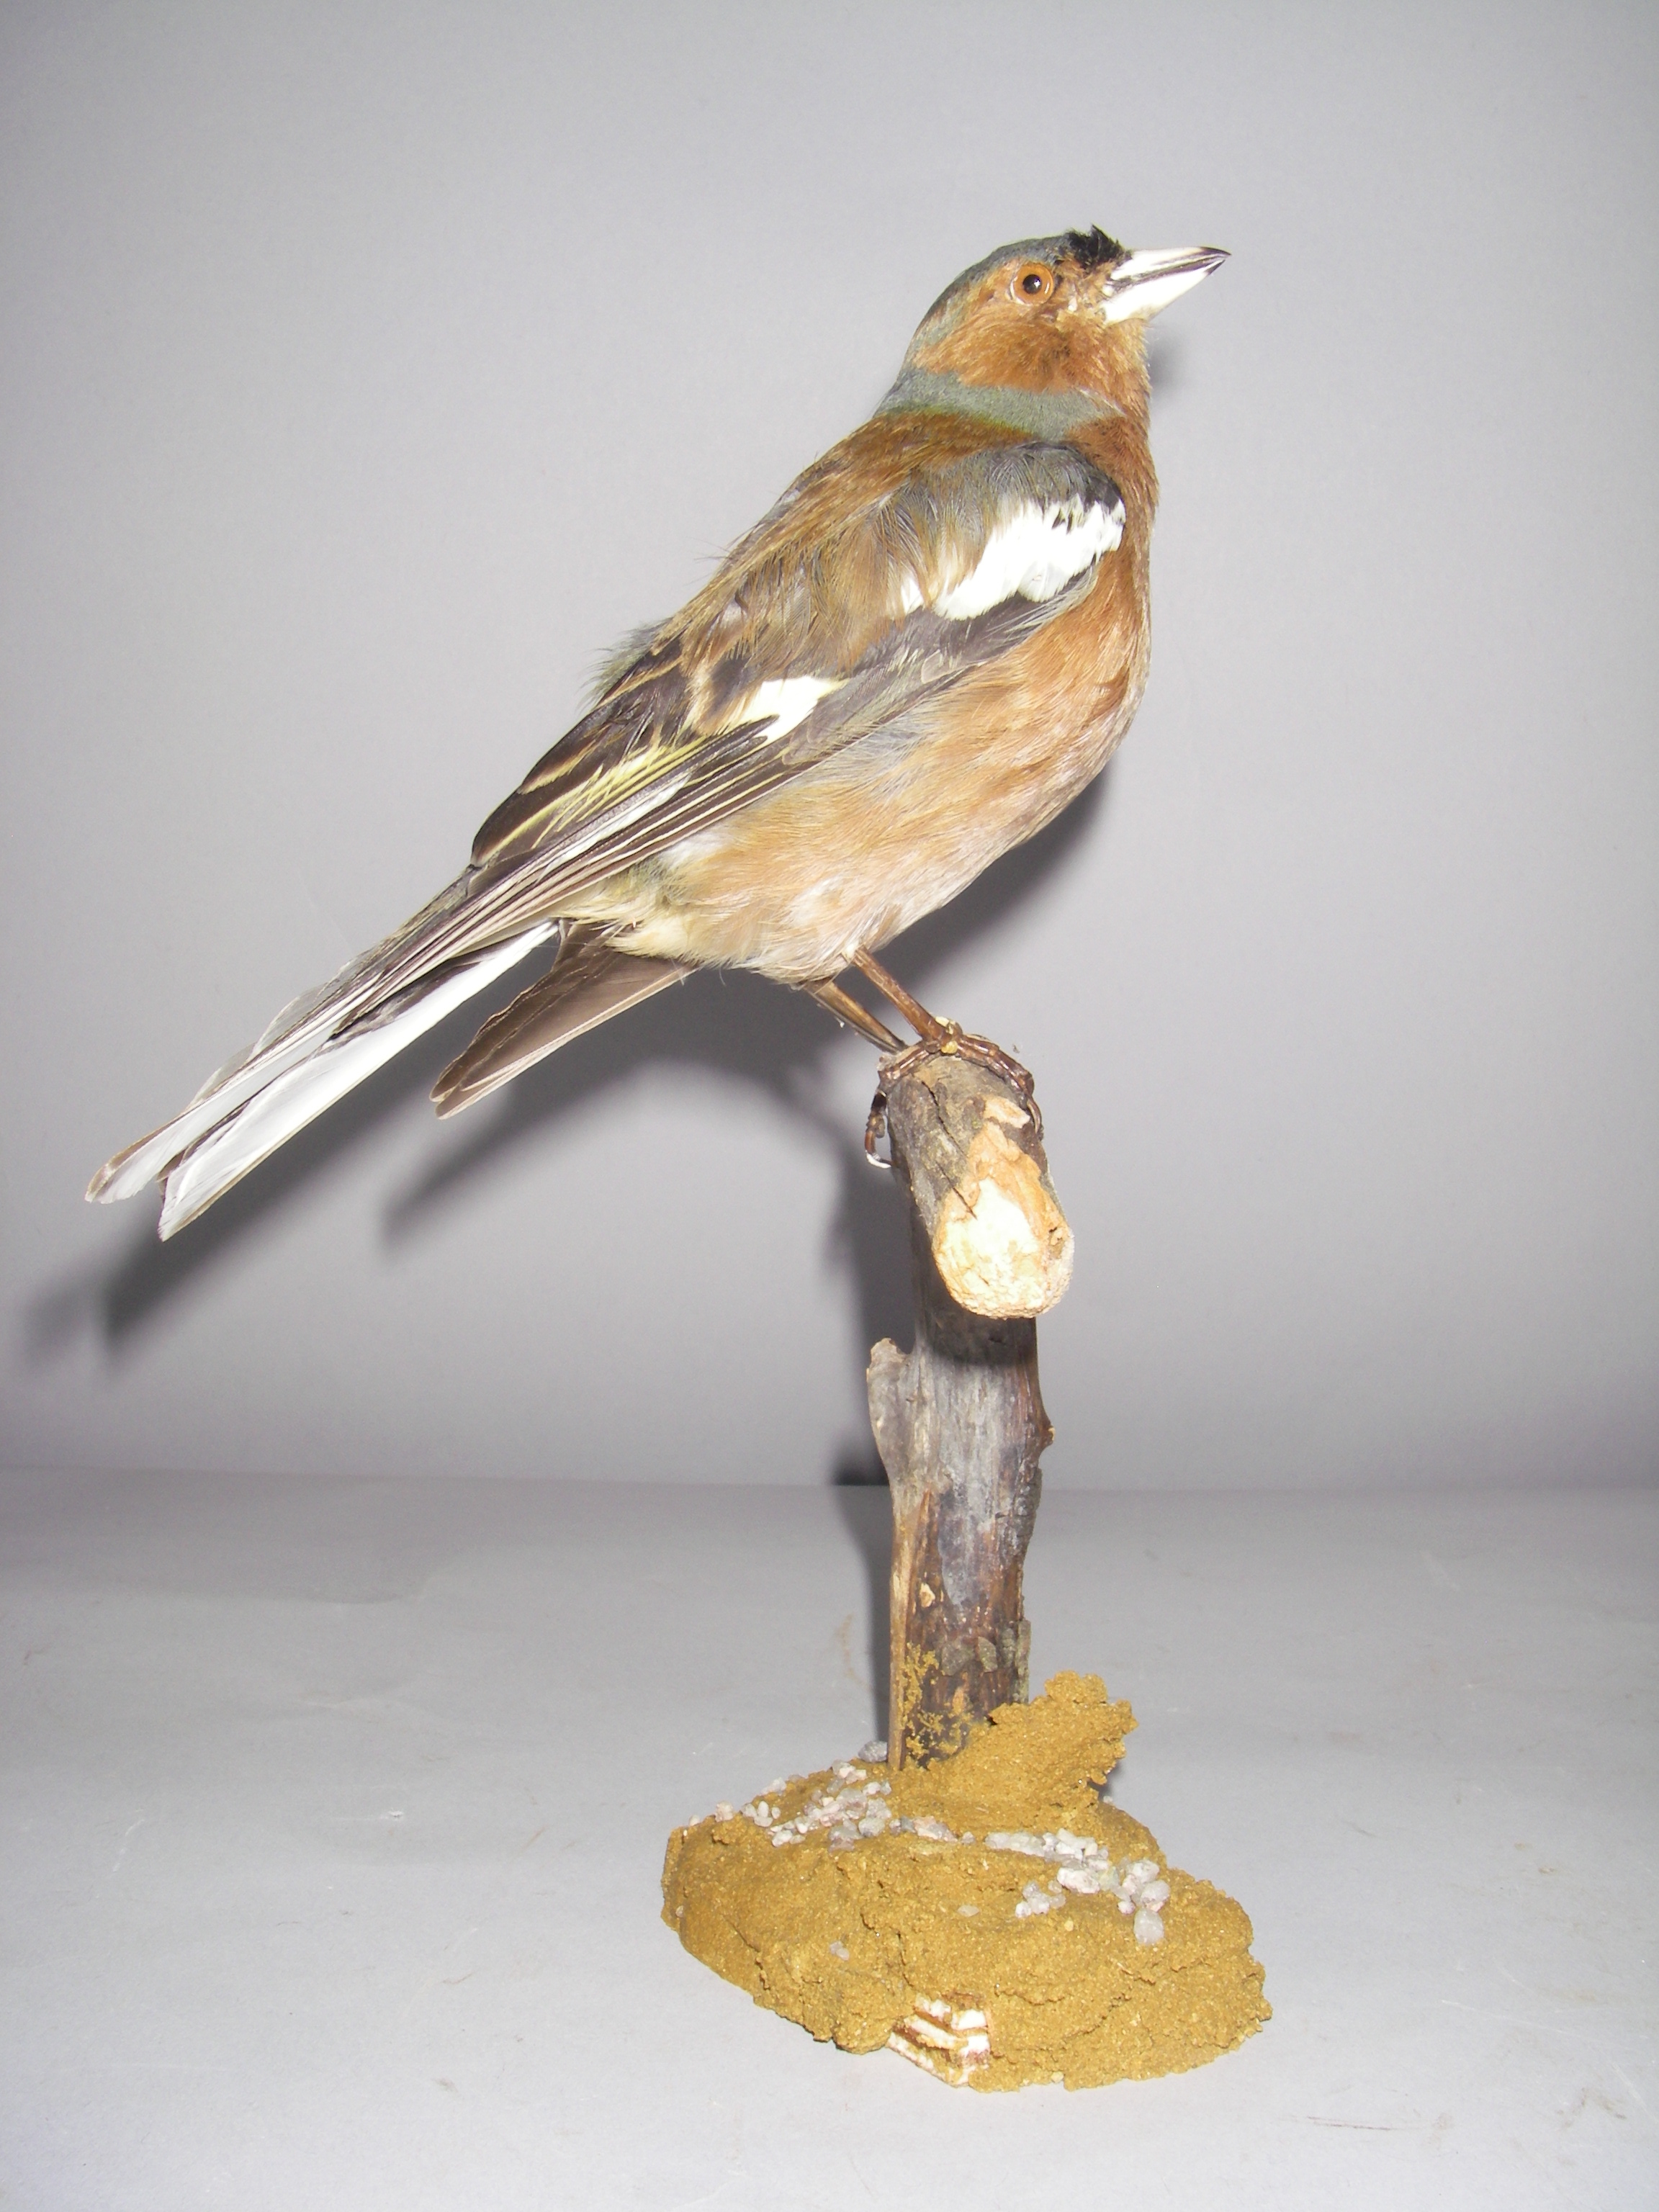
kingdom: Animalia
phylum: Chordata
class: Aves
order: Passeriformes
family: Fringillidae
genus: Fringilla
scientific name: Fringilla coelebs
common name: Common chaffinch
